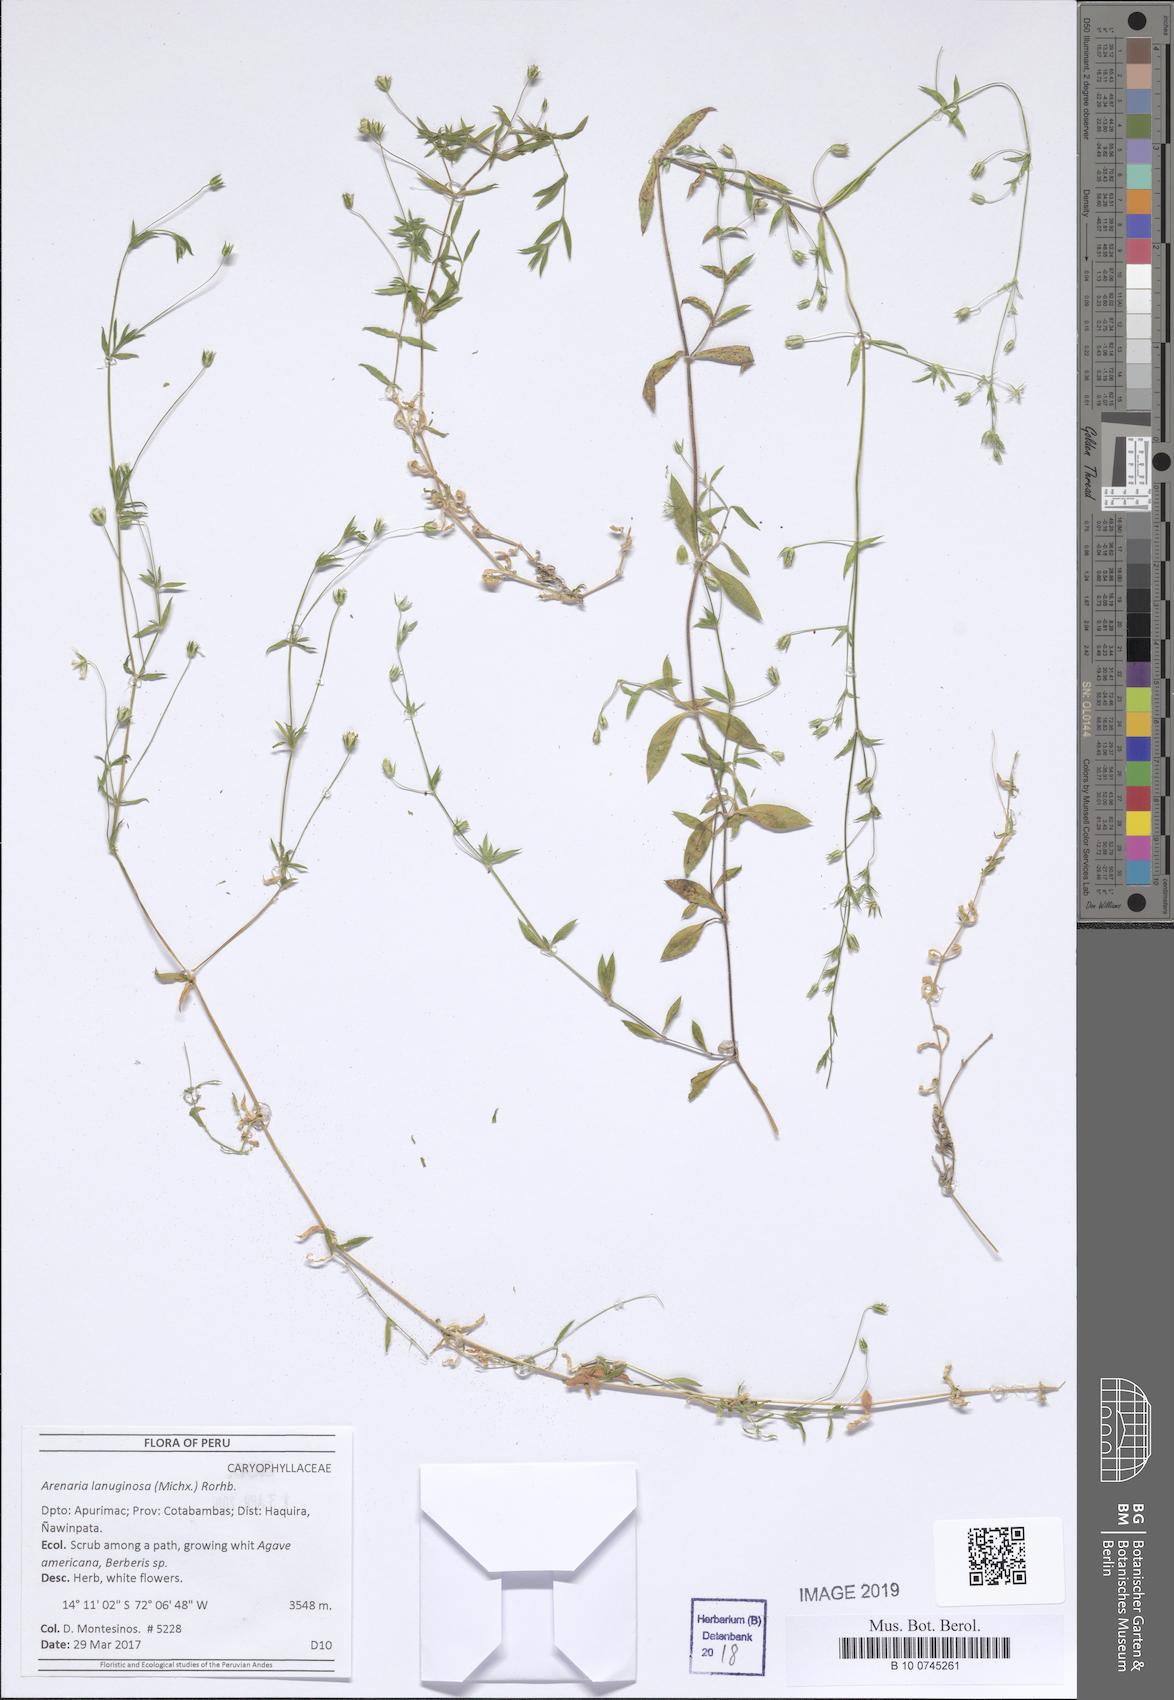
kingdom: Plantae
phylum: Tracheophyta
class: Magnoliopsida
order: Caryophyllales
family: Caryophyllaceae
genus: Arenaria
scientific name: Arenaria lanuginosa
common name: Spread sandwort
